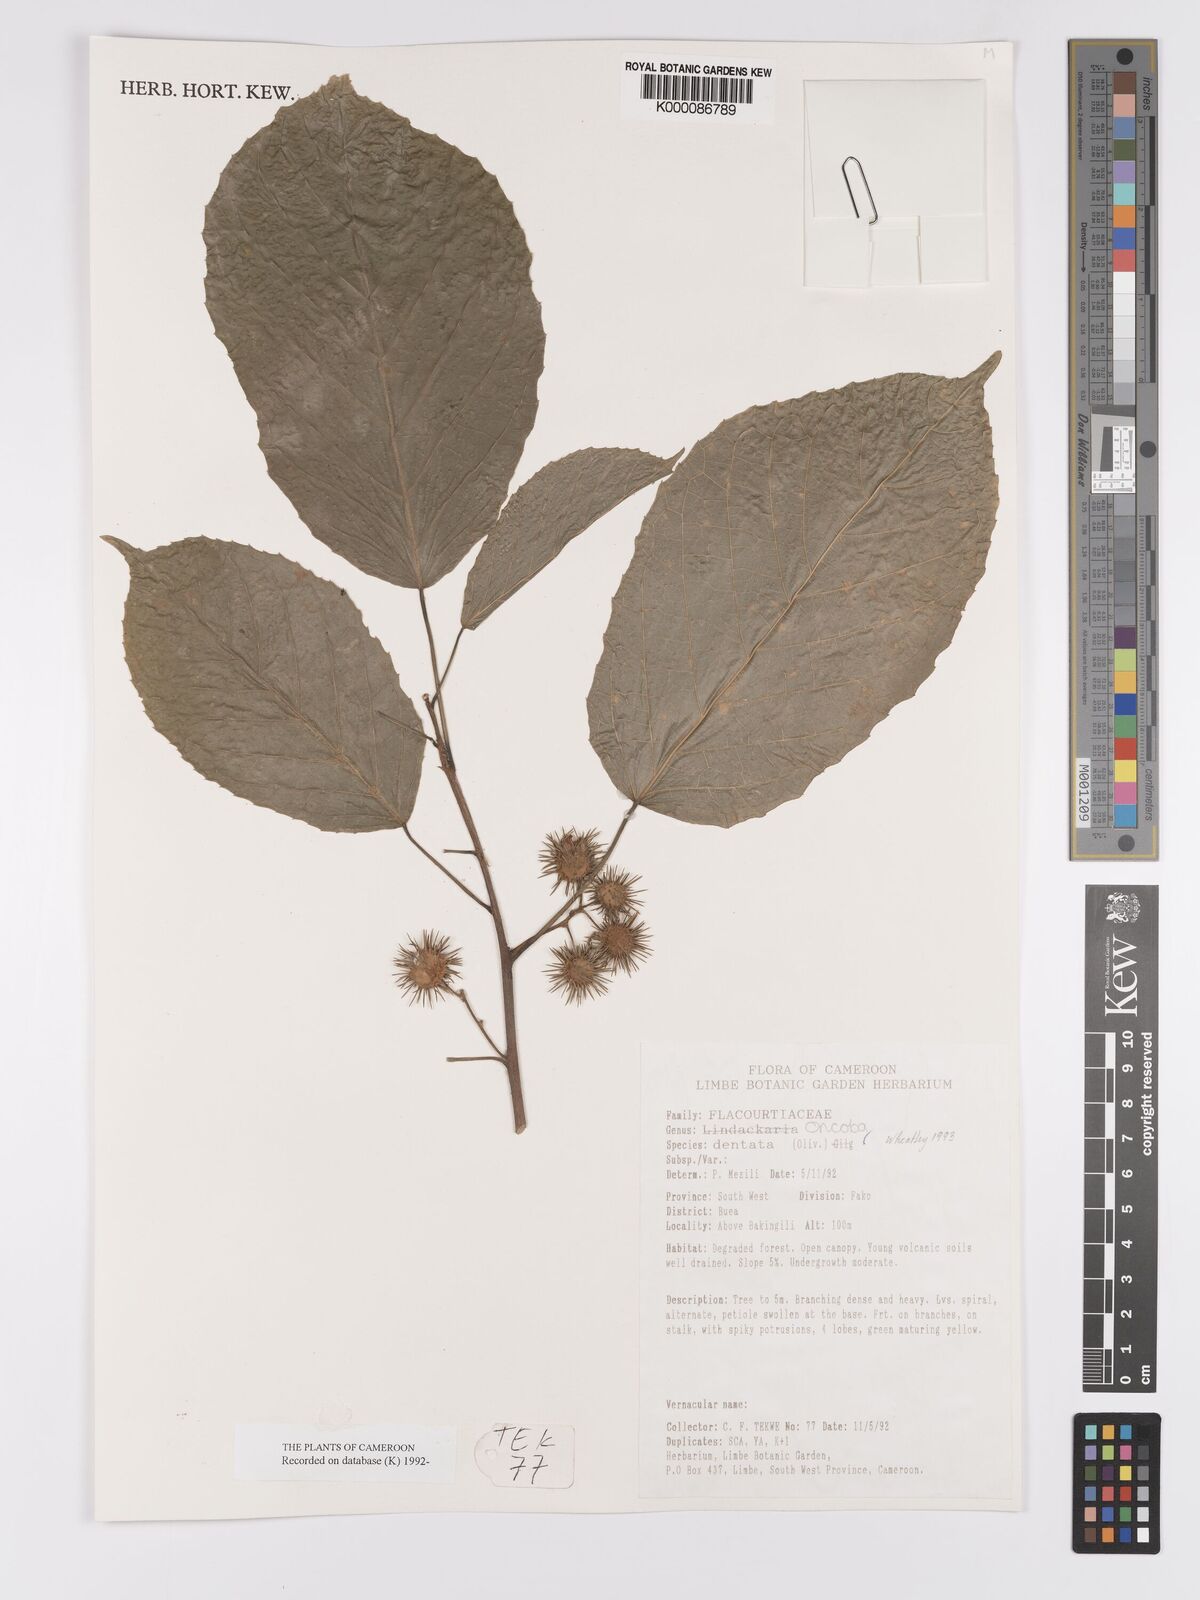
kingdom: Plantae
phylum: Tracheophyta
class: Magnoliopsida
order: Malpighiales
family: Achariaceae
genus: Lindackeria
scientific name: Lindackeria dentata
